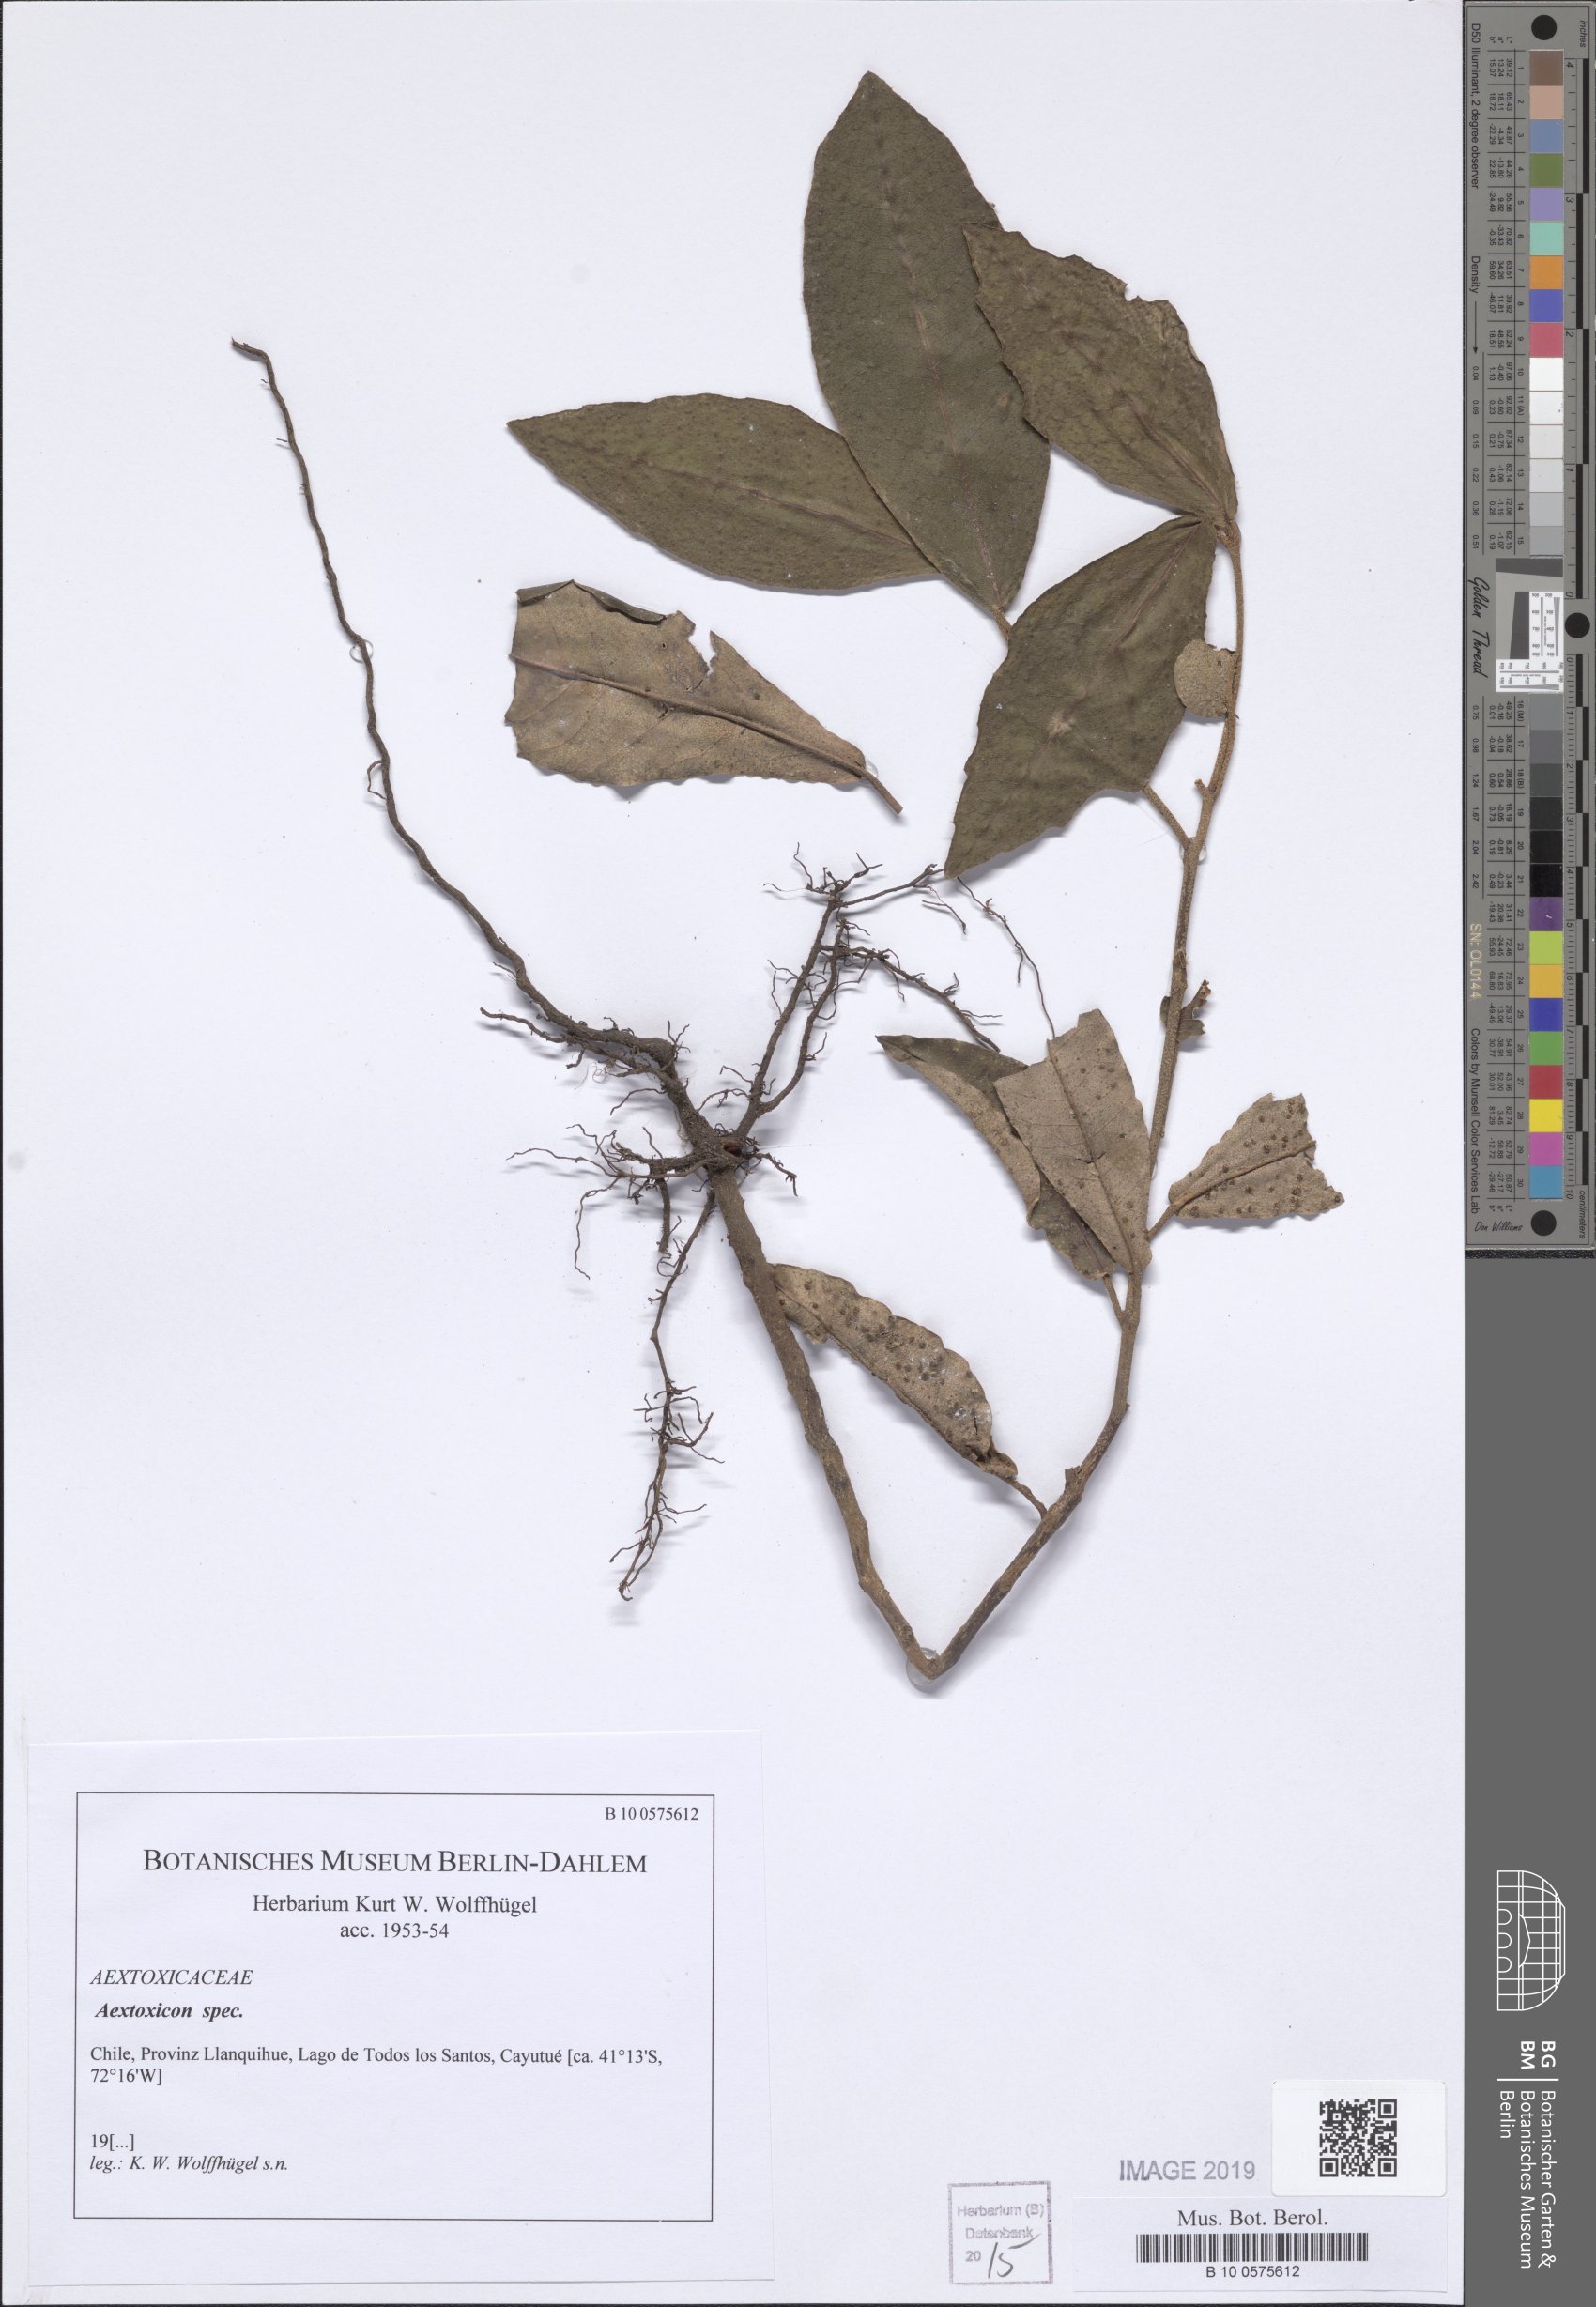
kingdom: Plantae
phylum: Tracheophyta
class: Magnoliopsida
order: Berberidopsidales
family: Aextoxicaceae
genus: Aextoxicon
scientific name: Aextoxicon
